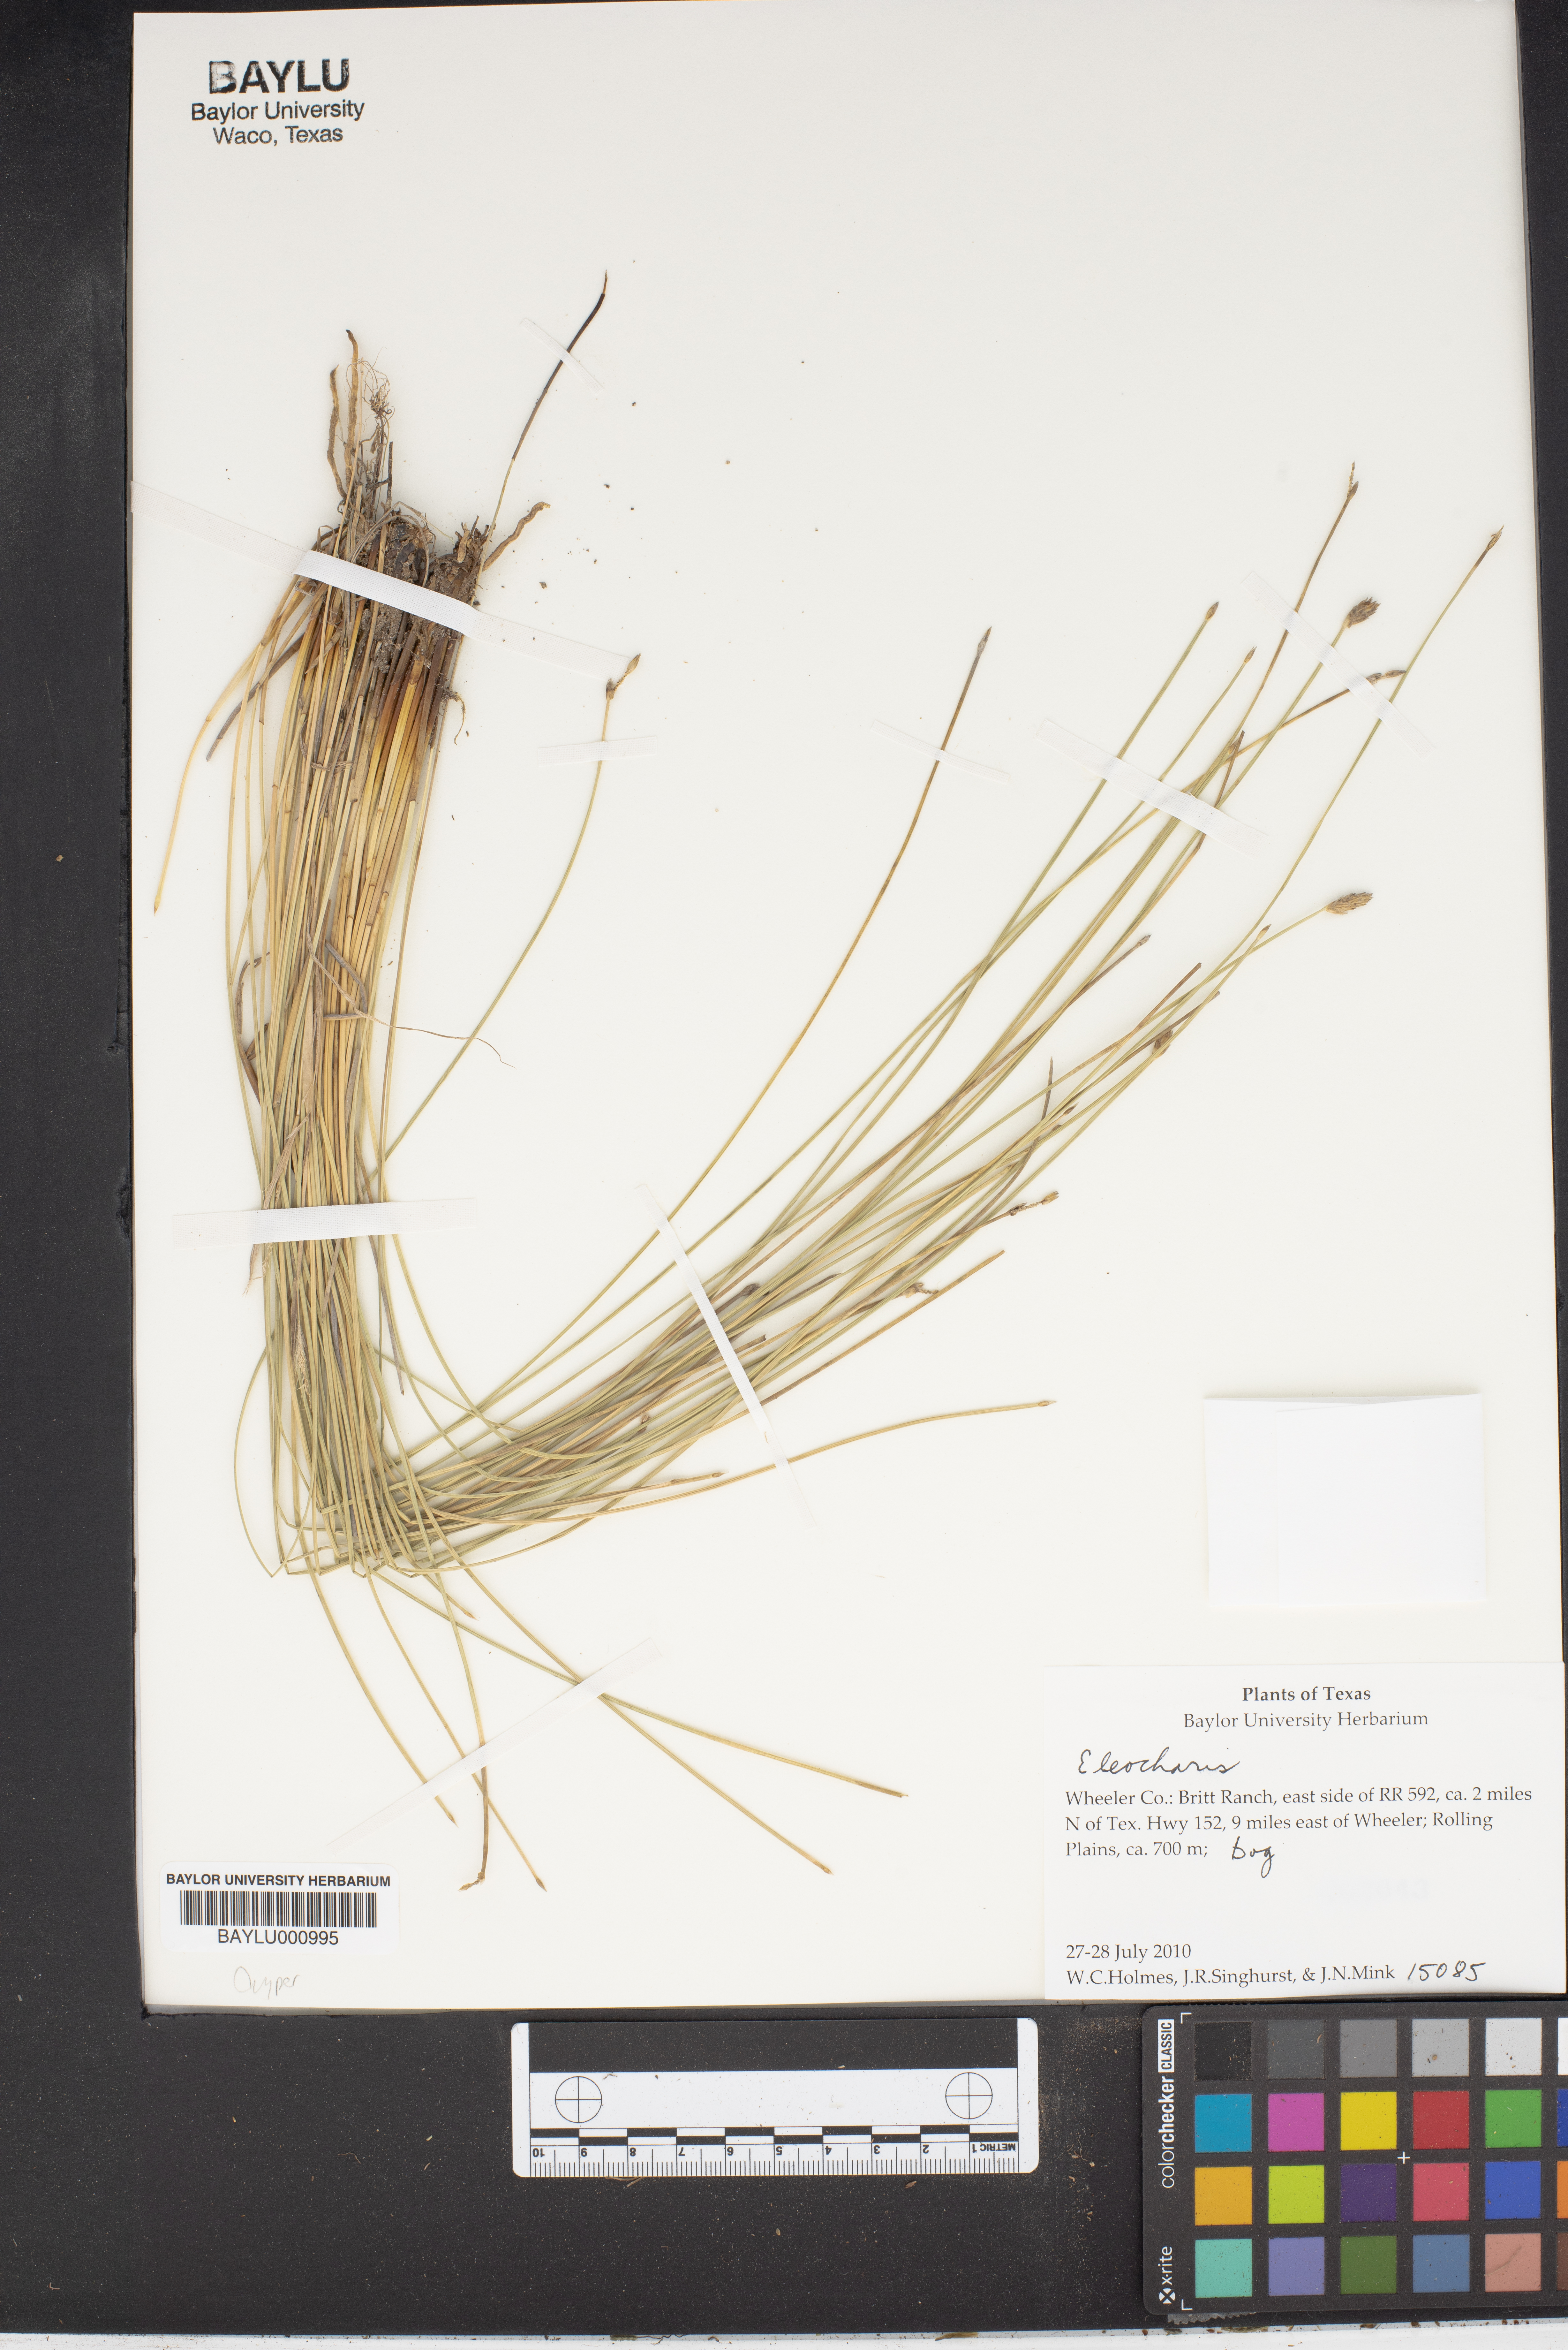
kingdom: Plantae
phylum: Tracheophyta
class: Liliopsida
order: Poales
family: Cyperaceae
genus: Eleocharis
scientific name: Eleocharis
